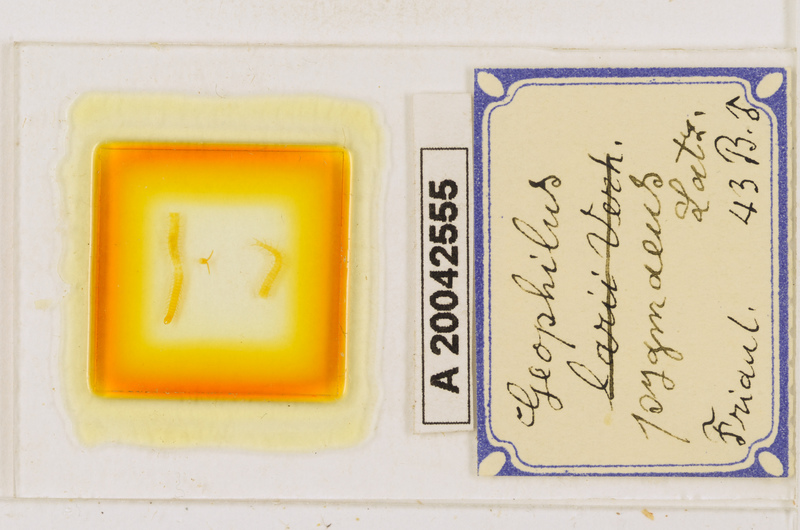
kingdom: Animalia
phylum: Arthropoda
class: Chilopoda
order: Geophilomorpha
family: Geophilidae
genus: Geophilus
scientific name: Geophilus pygmaeus
